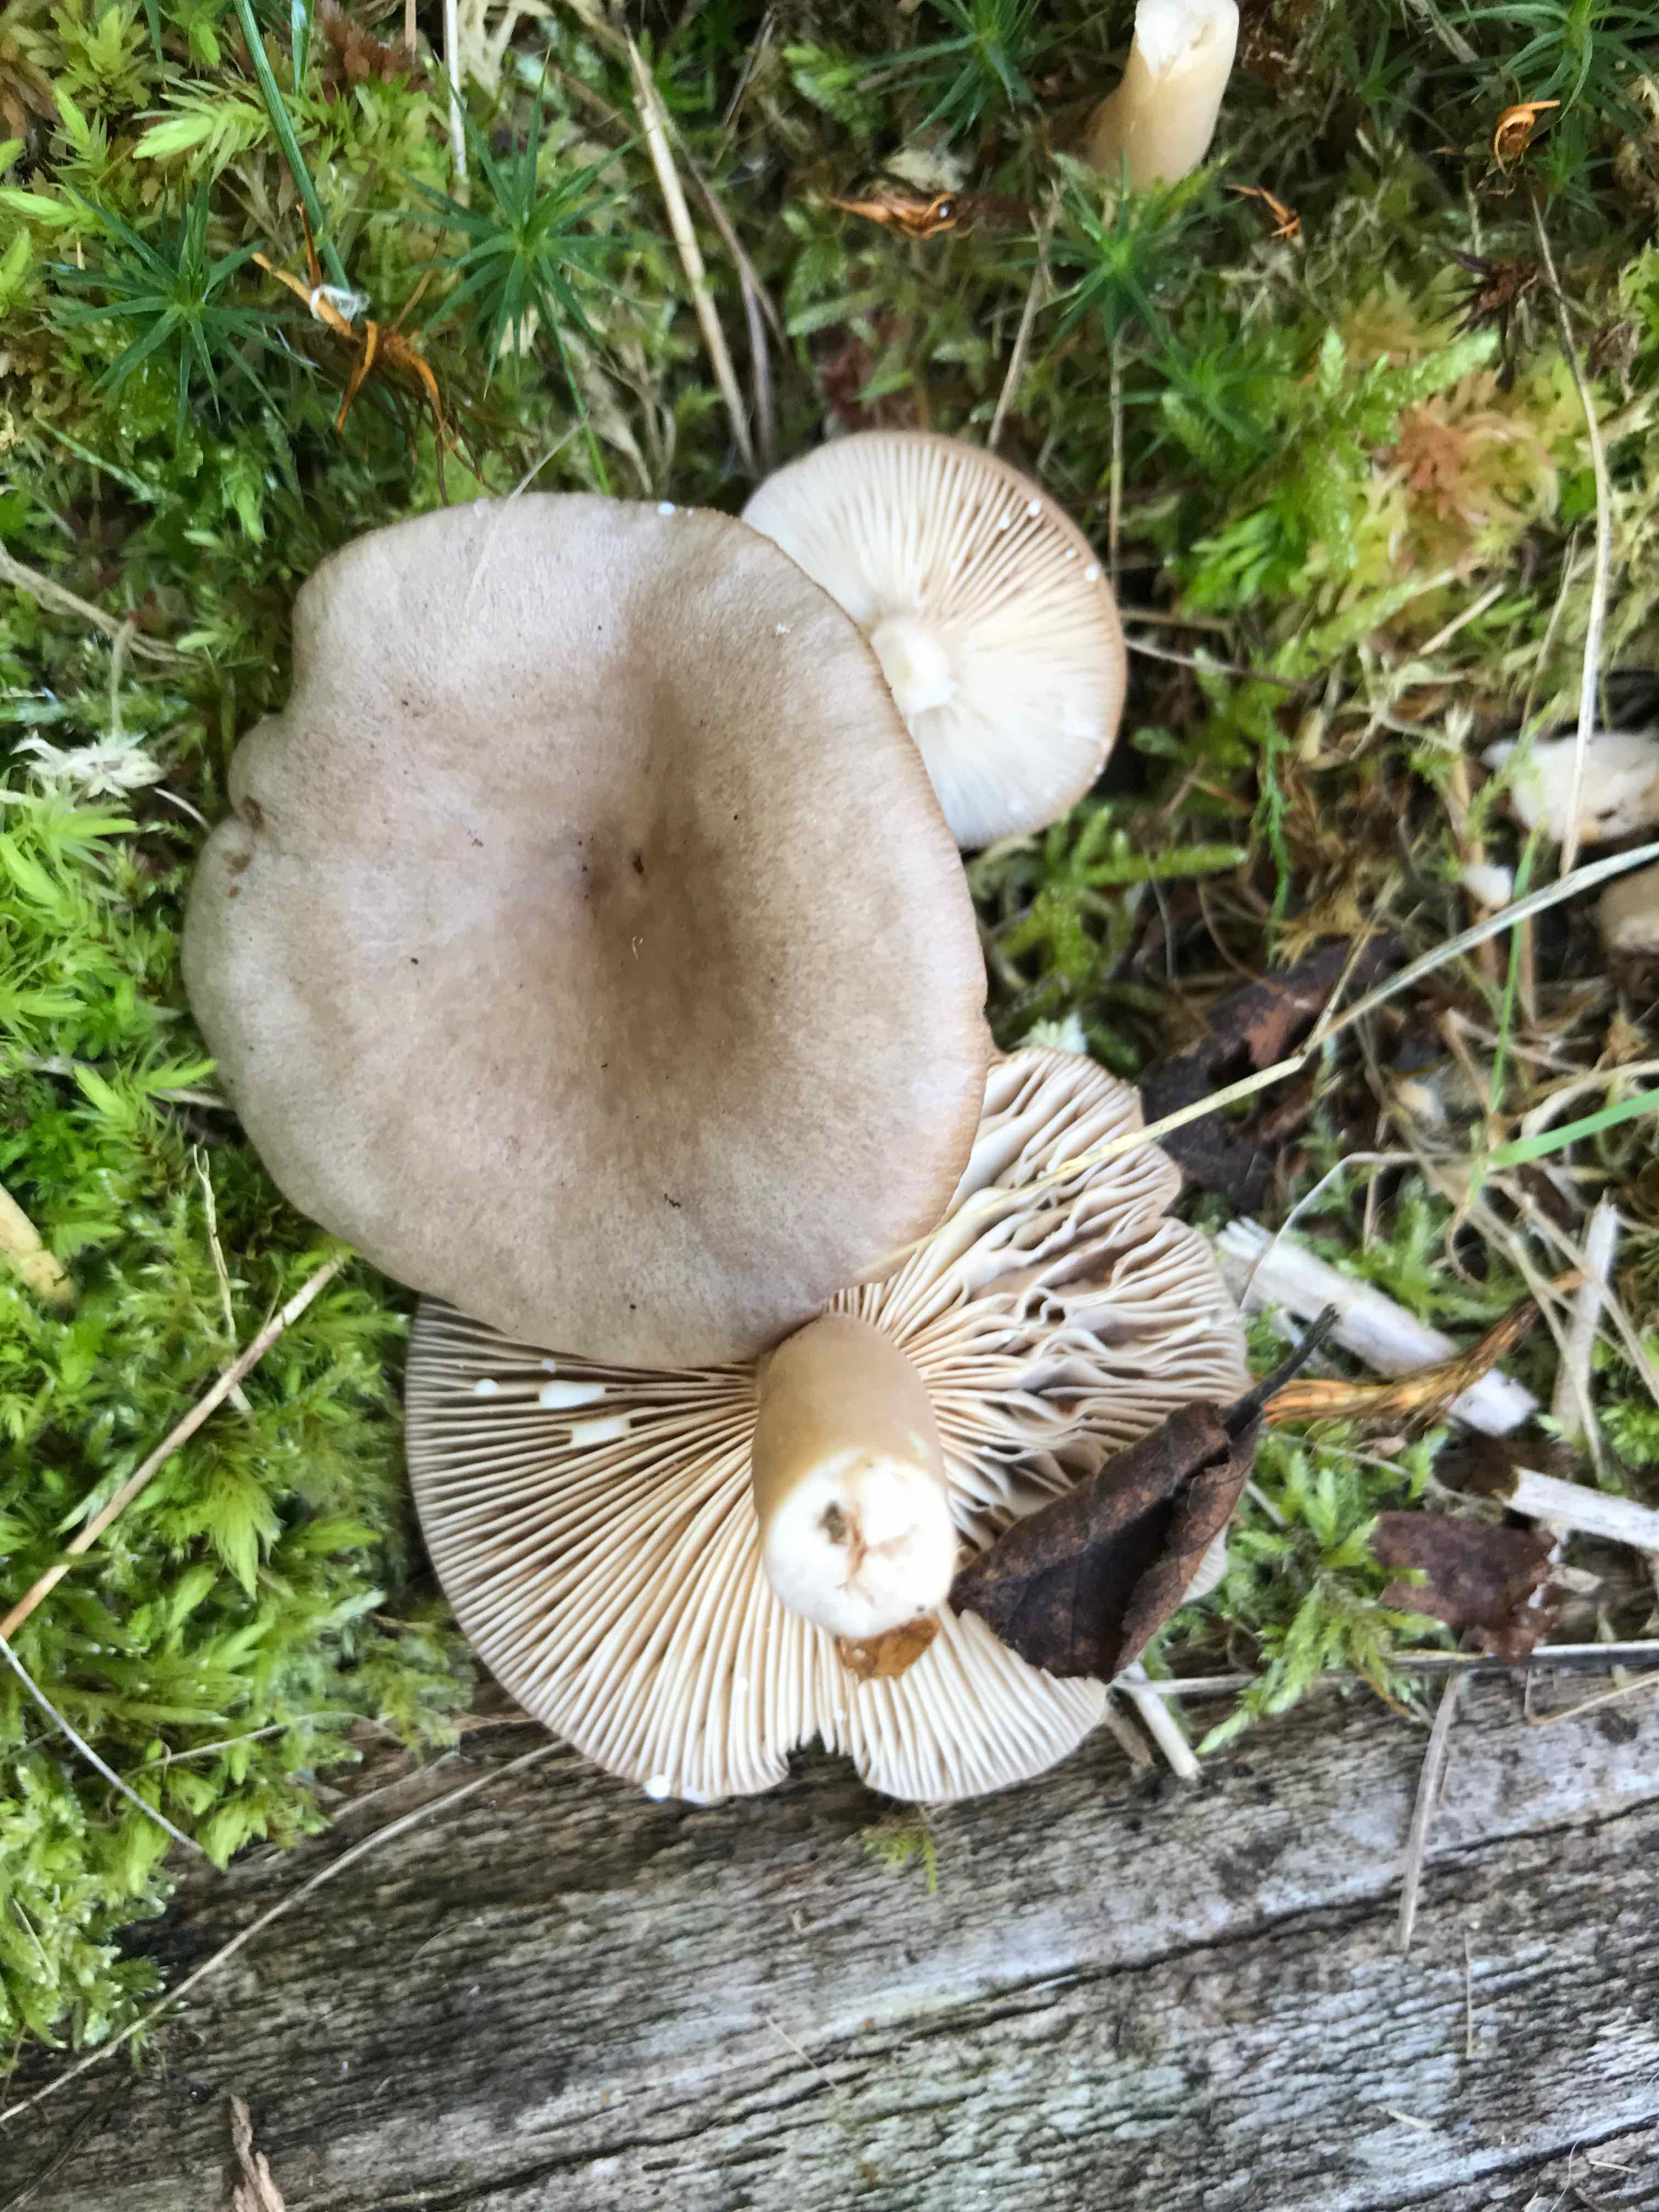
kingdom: Fungi
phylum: Basidiomycota
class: Agaricomycetes
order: Russulales
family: Russulaceae
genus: Lactarius
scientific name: Lactarius glyciosmus
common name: kokos-mælkehat
